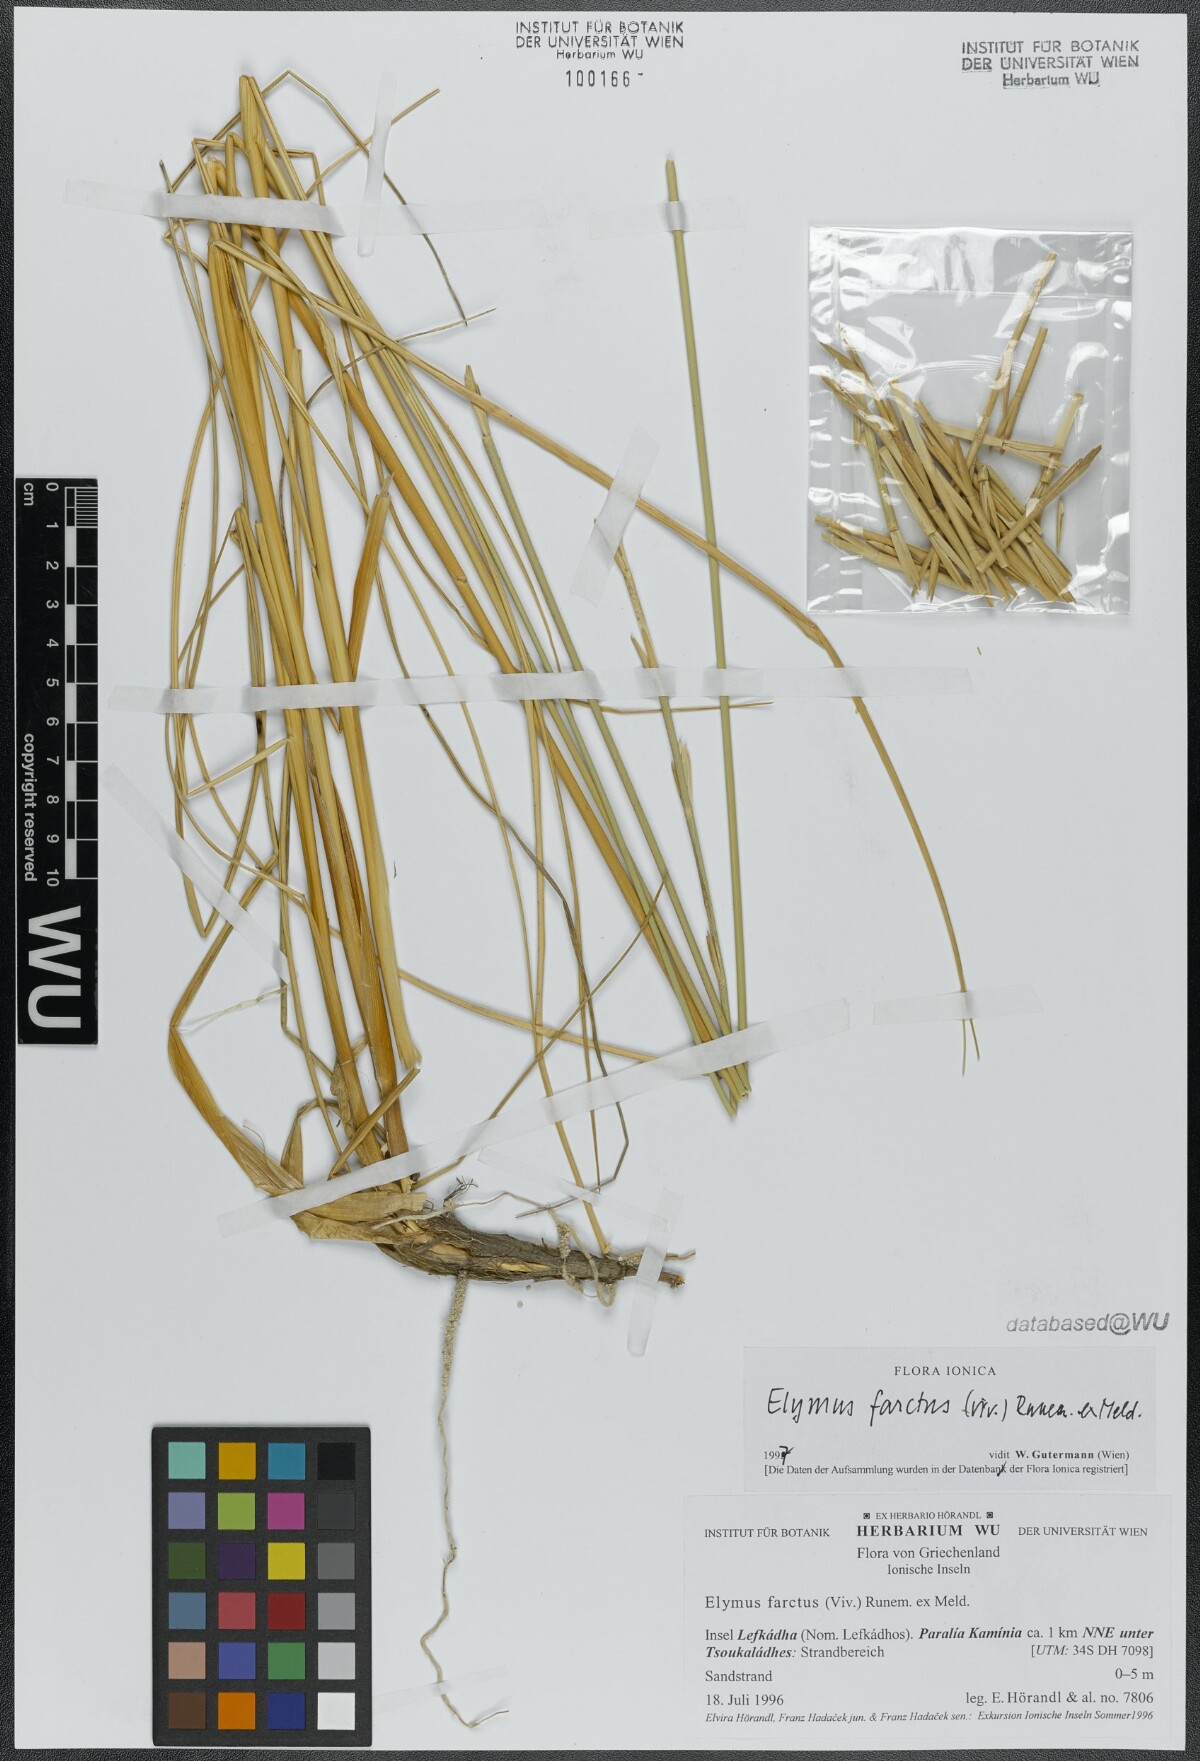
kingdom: Plantae
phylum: Tracheophyta
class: Liliopsida
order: Poales
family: Poaceae
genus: Thinopyrum
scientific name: Thinopyrum junceum
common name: Russian wheatgrass
